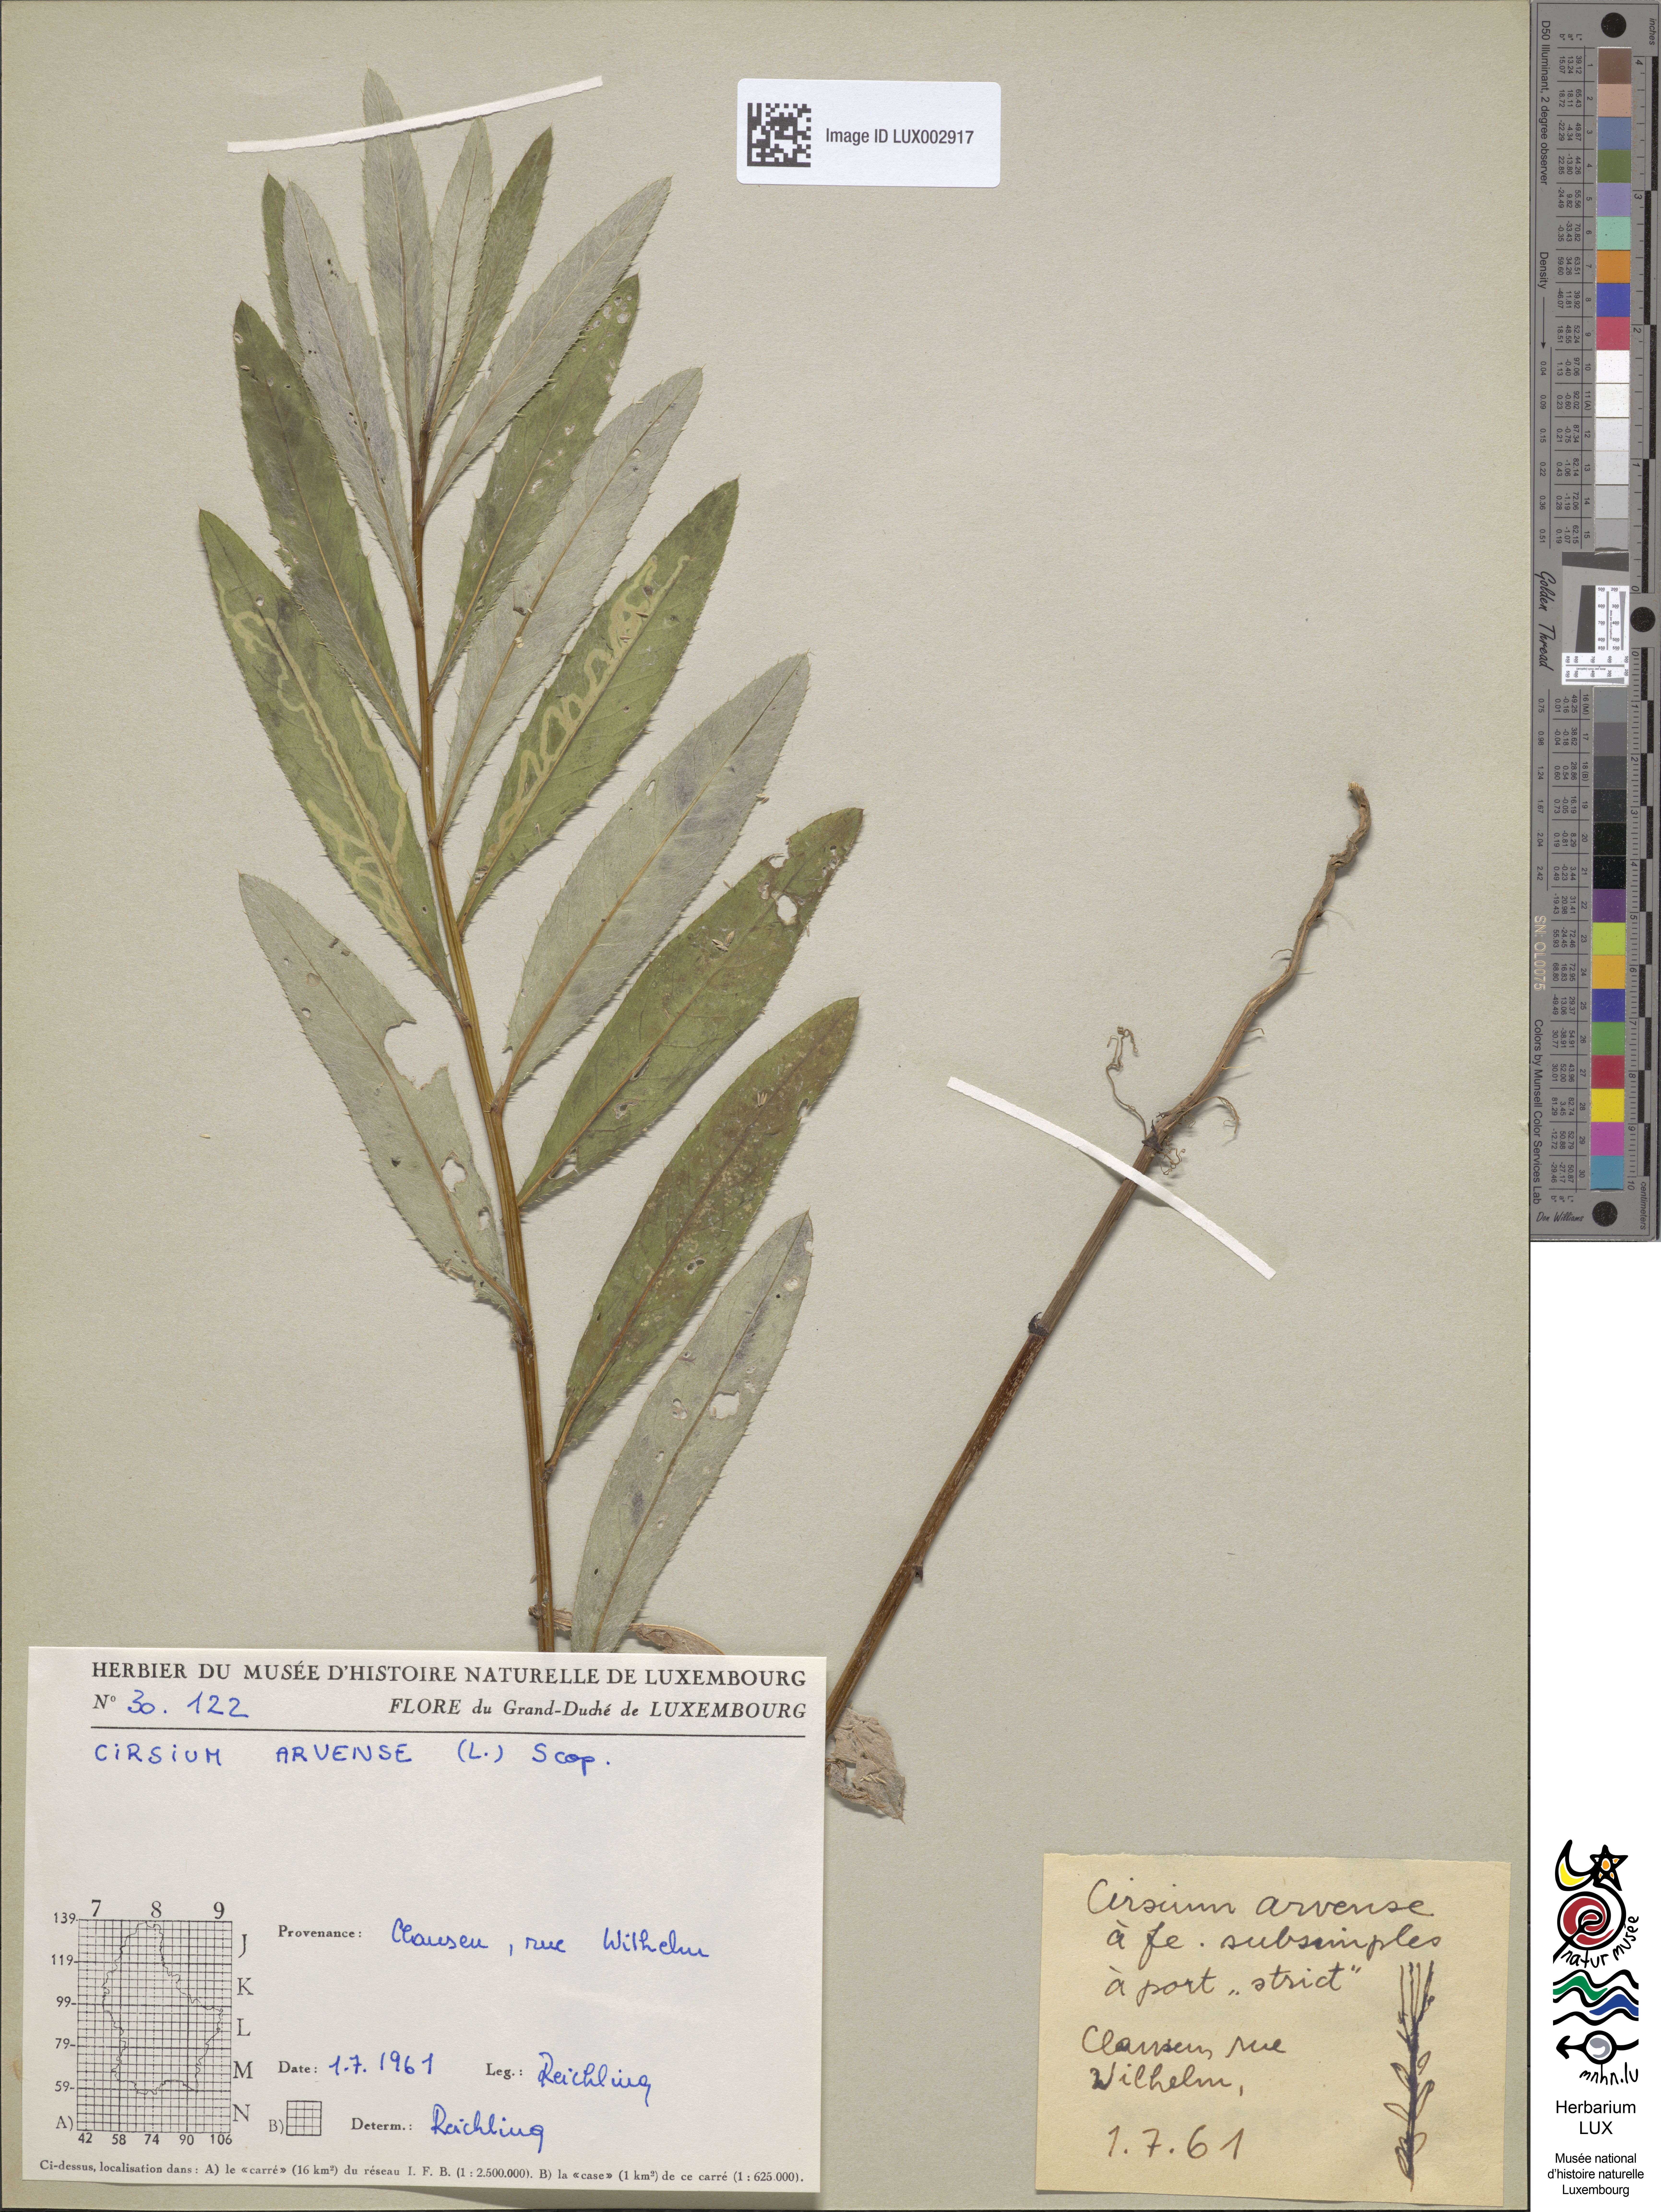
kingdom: Plantae
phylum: Tracheophyta
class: Magnoliopsida
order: Asterales
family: Asteraceae
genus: Cirsium
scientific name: Cirsium arvense
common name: Creeping thistle
